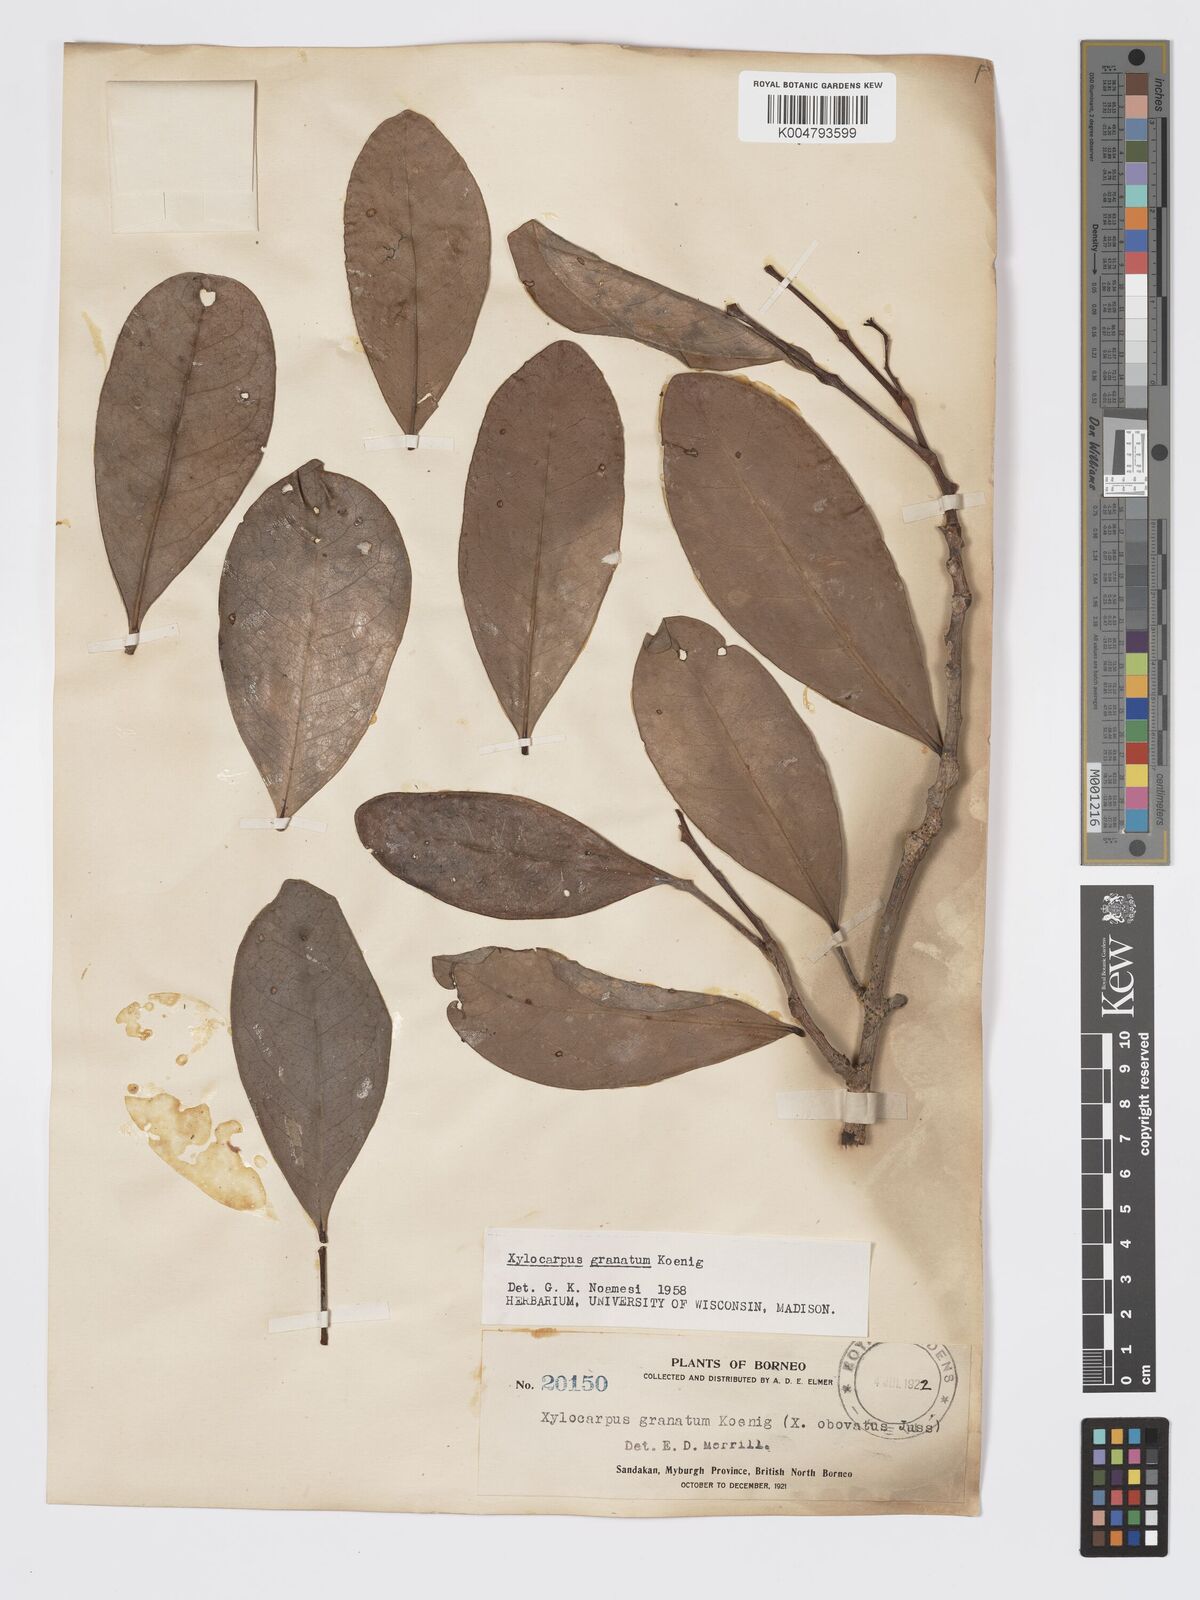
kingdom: Plantae
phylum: Tracheophyta
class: Magnoliopsida
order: Sapindales
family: Meliaceae
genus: Xylocarpus
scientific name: Xylocarpus granatum
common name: Apple mangrove
